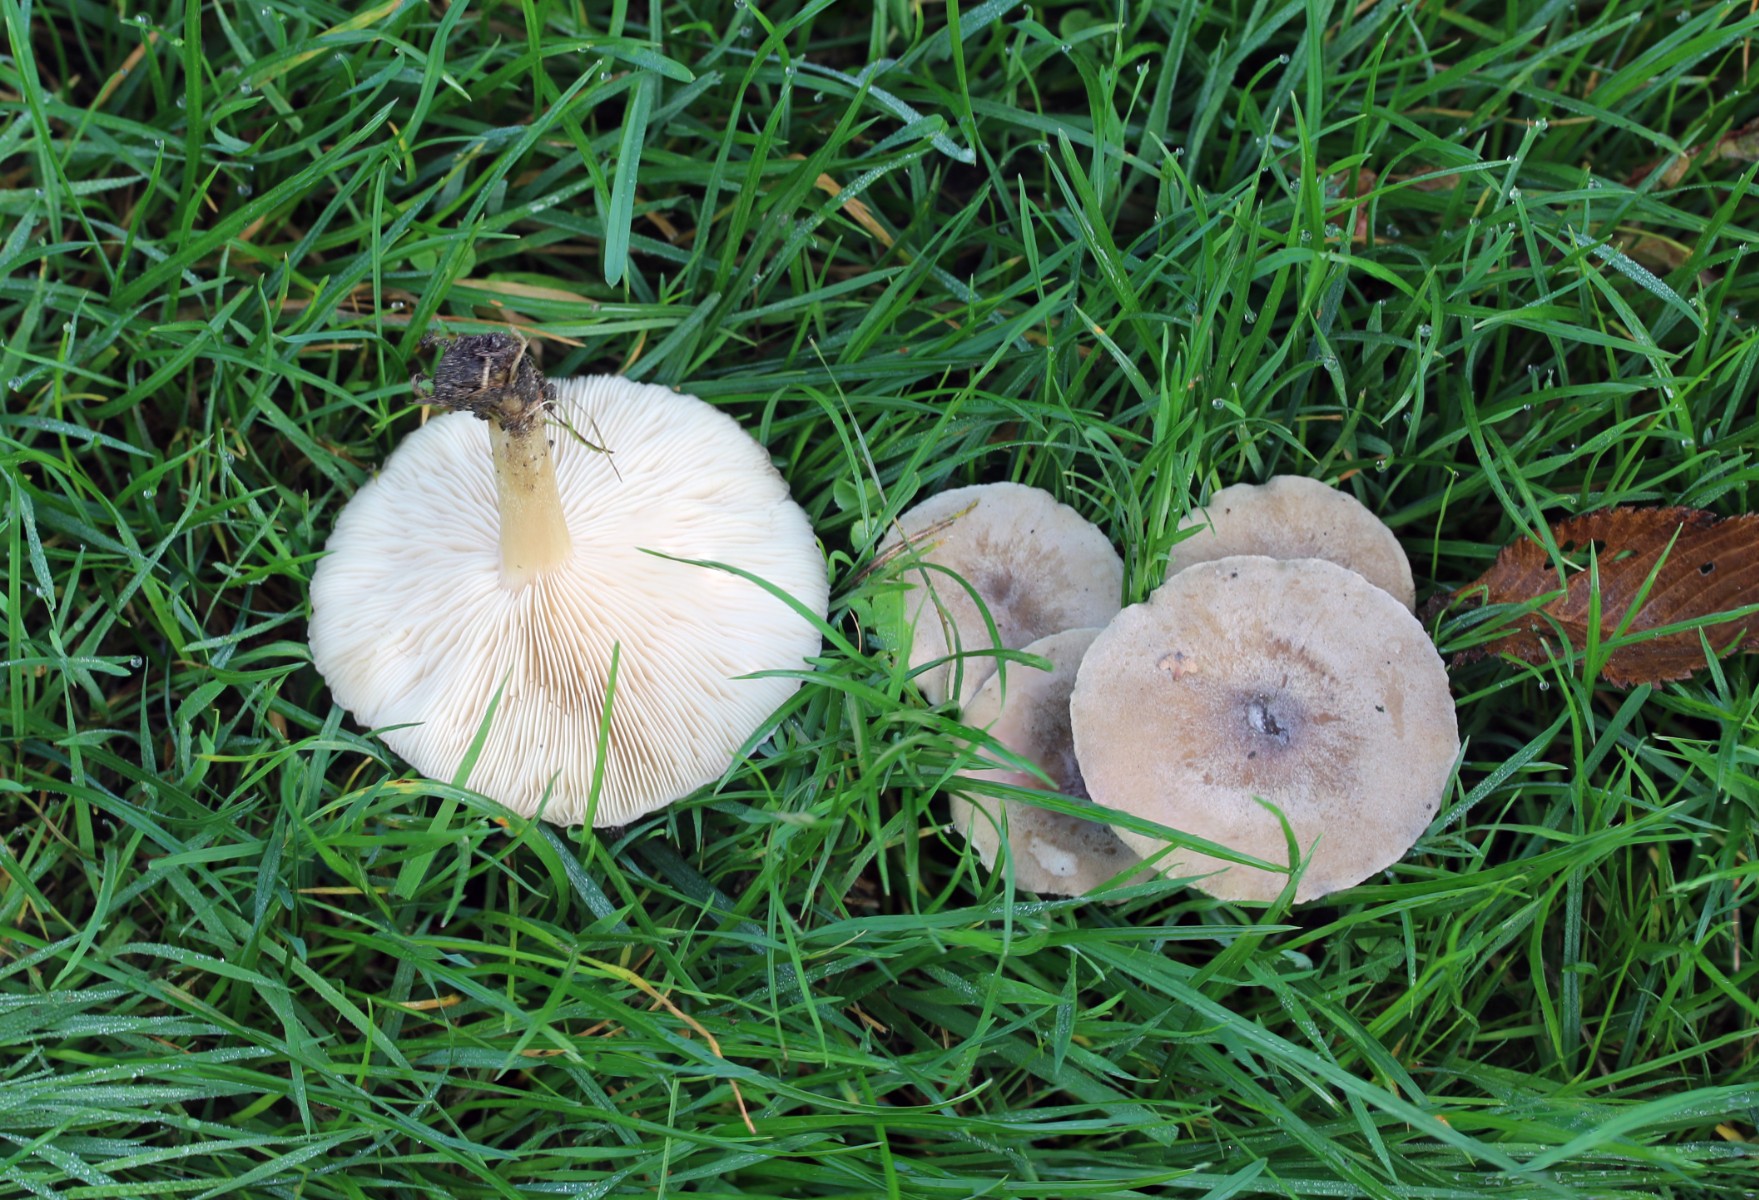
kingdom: Fungi
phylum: Basidiomycota
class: Agaricomycetes
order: Russulales
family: Russulaceae
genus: Lactarius
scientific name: Lactarius pubescens
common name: dunet mælkehat
